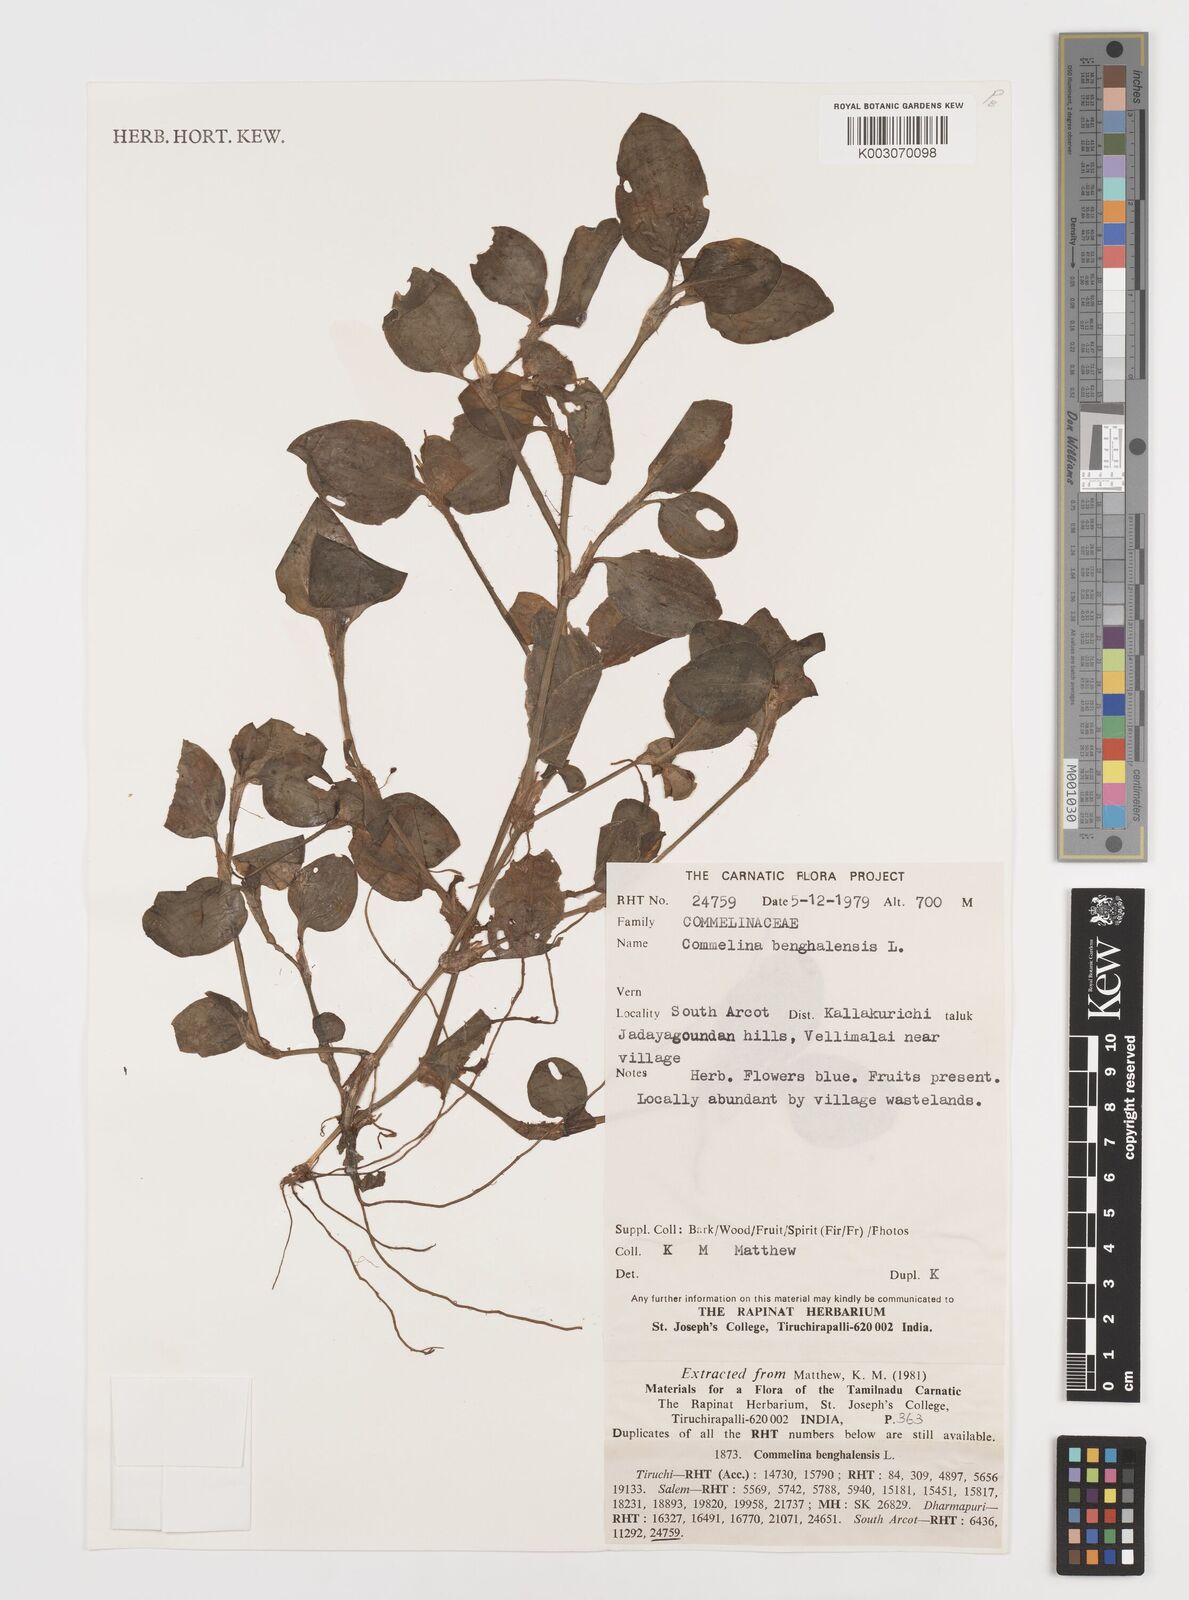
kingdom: Plantae
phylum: Tracheophyta
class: Liliopsida
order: Commelinales
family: Commelinaceae
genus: Commelina
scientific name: Commelina benghalensis
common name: Jio
